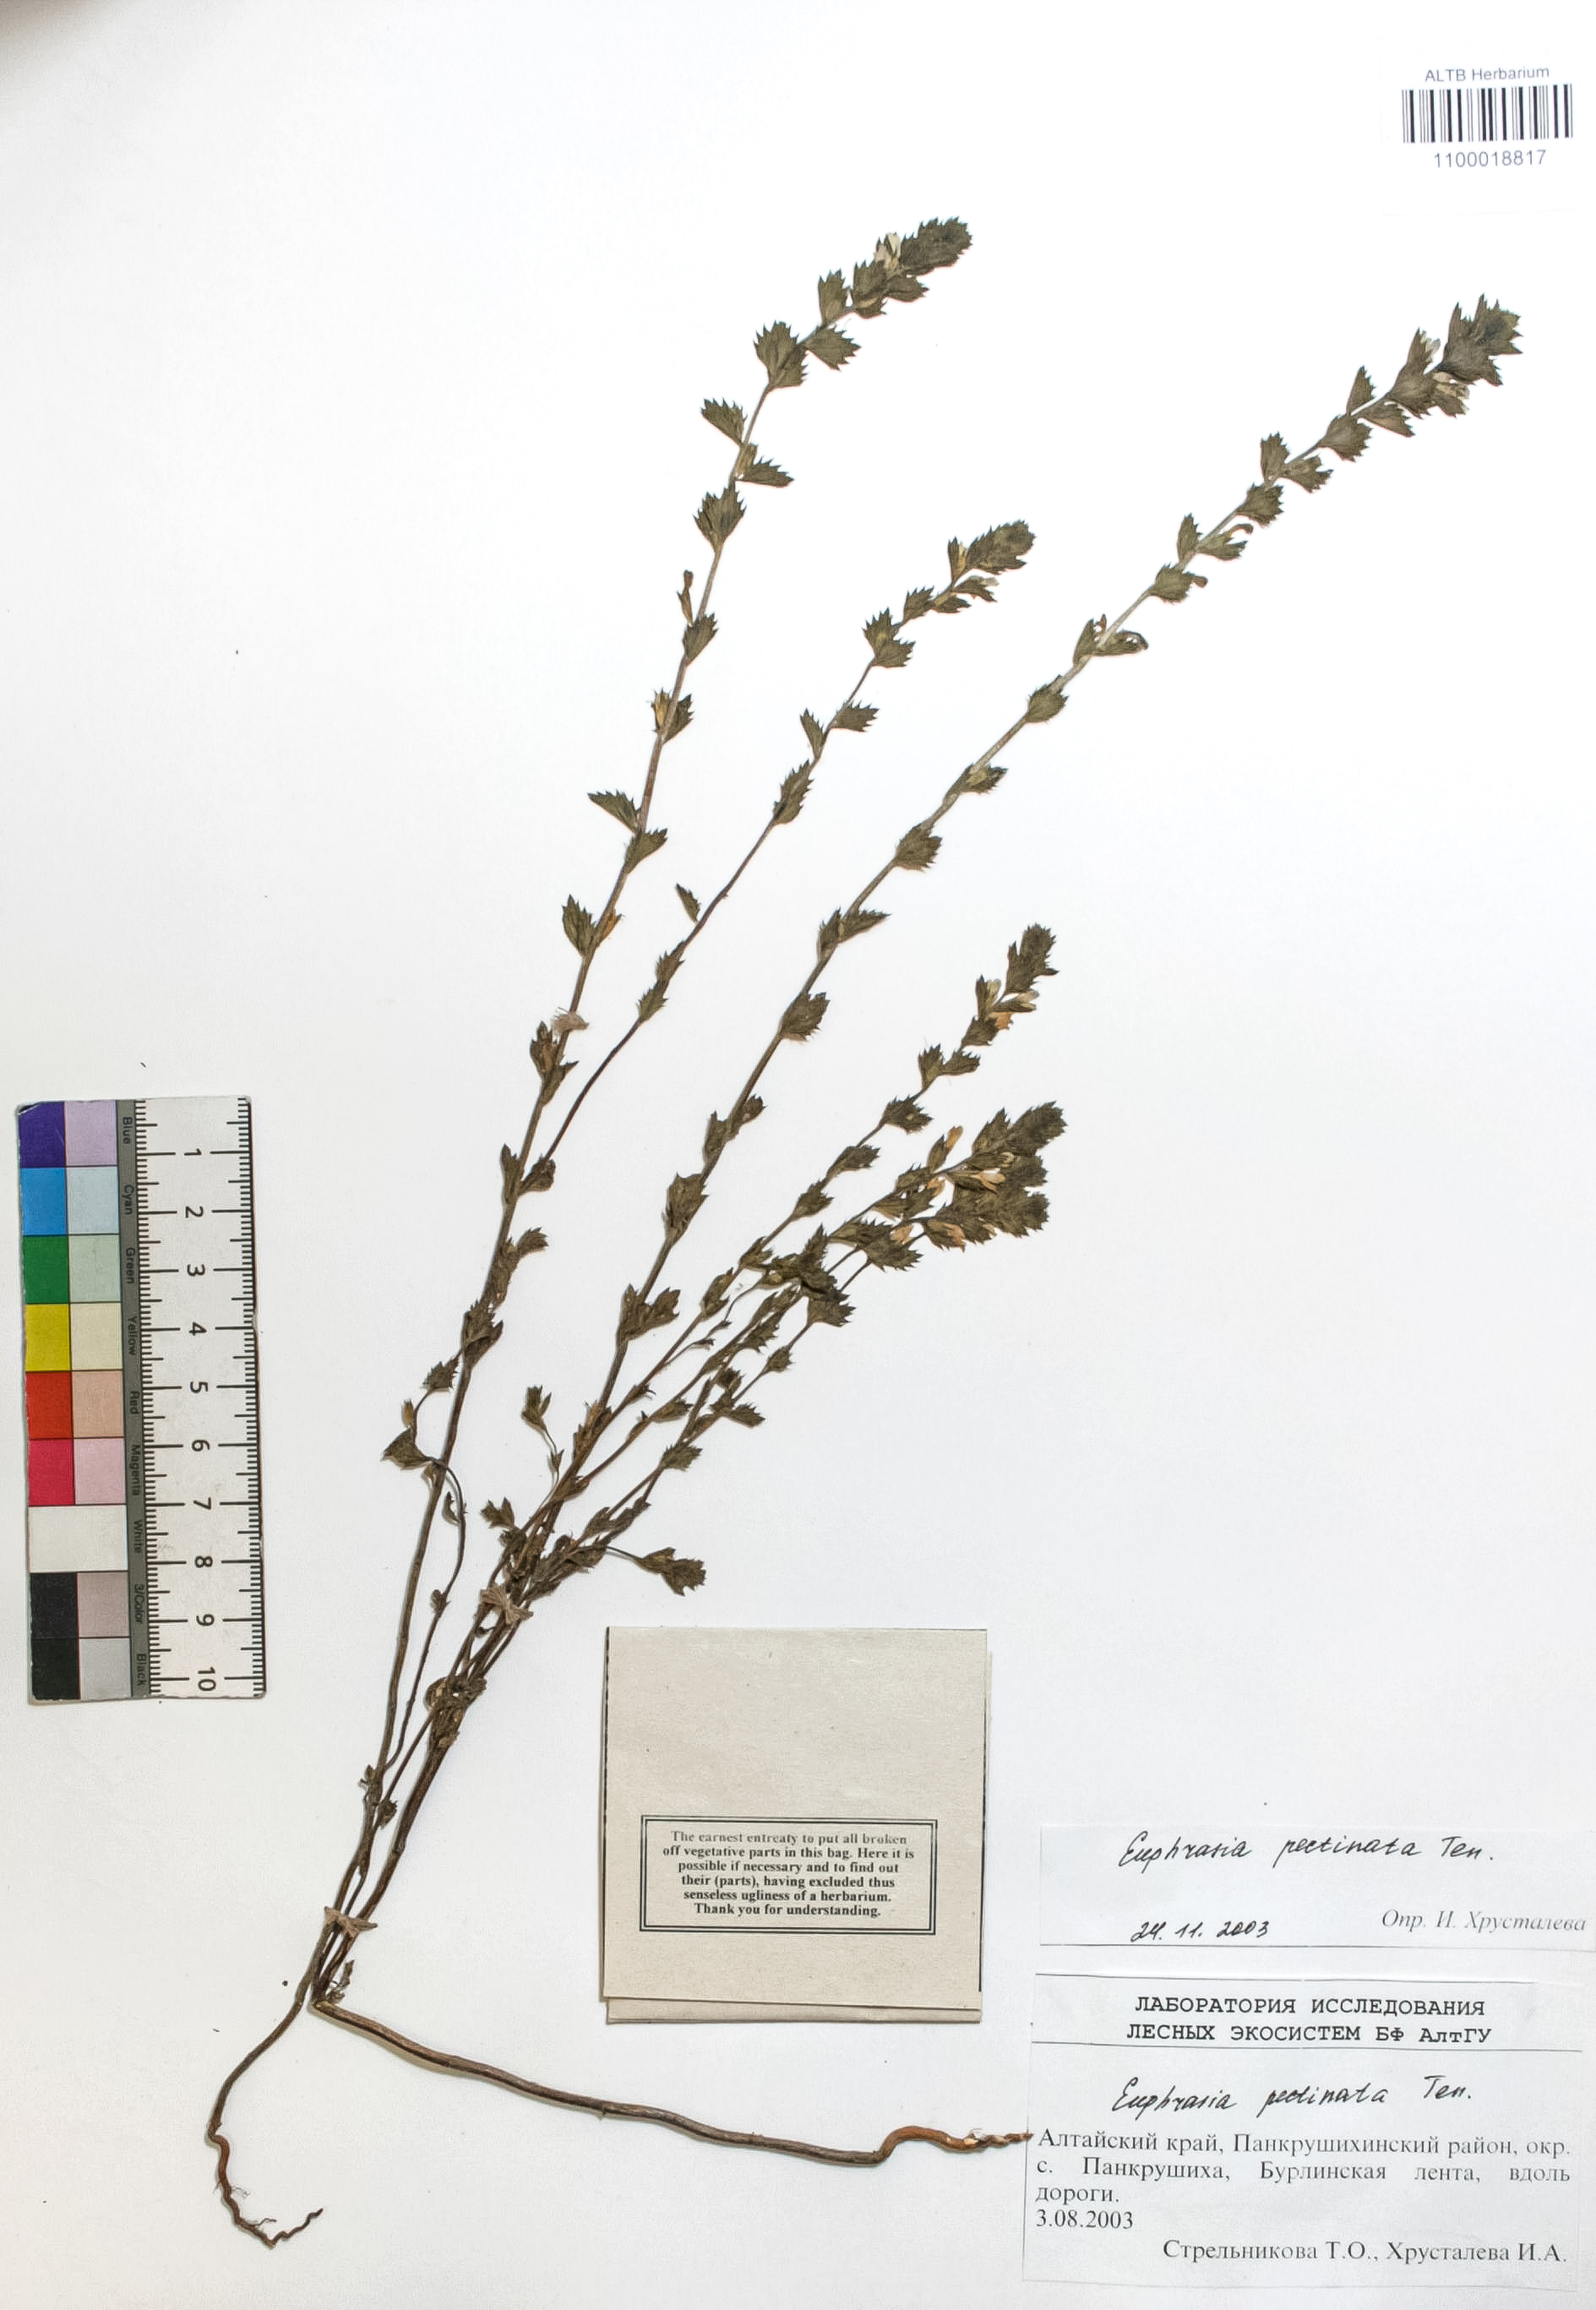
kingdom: Plantae
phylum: Tracheophyta
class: Magnoliopsida
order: Lamiales
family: Orobanchaceae
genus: Euphrasia
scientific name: Euphrasia pectinata
